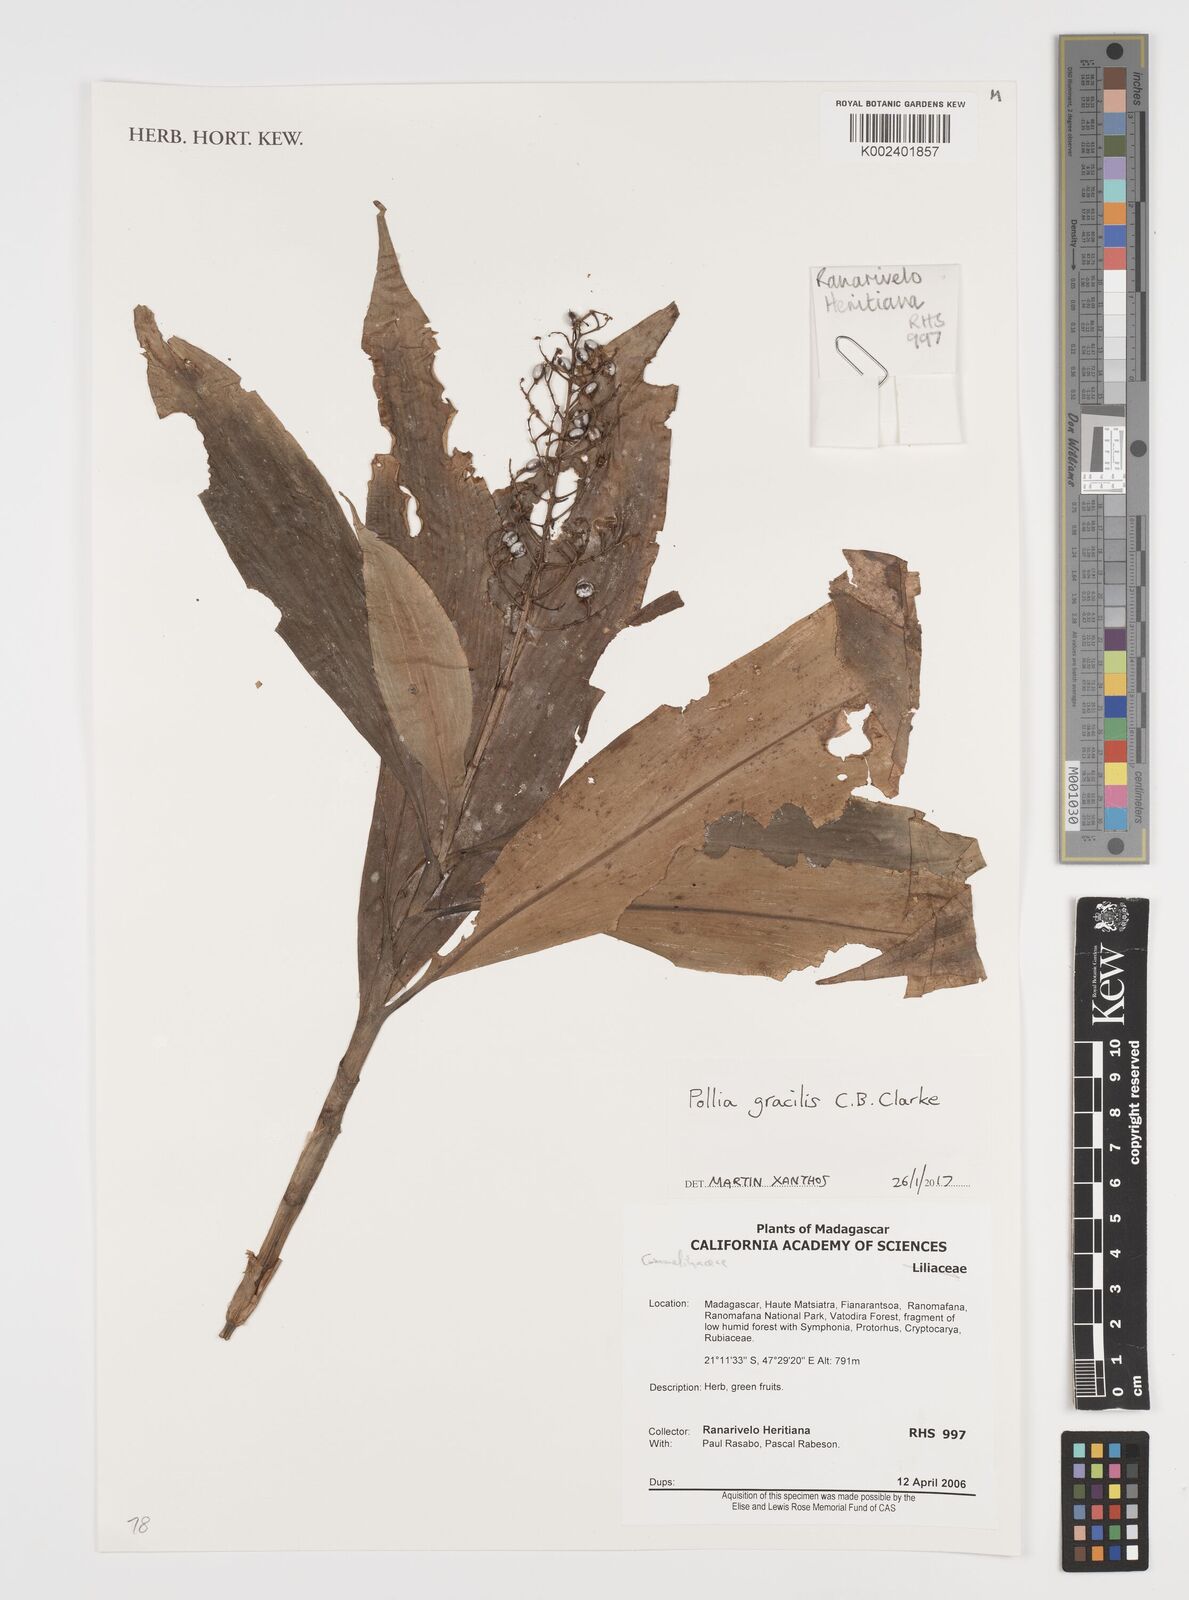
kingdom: Plantae
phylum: Tracheophyta
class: Liliopsida
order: Commelinales
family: Commelinaceae
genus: Pollia
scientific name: Pollia gracilis
